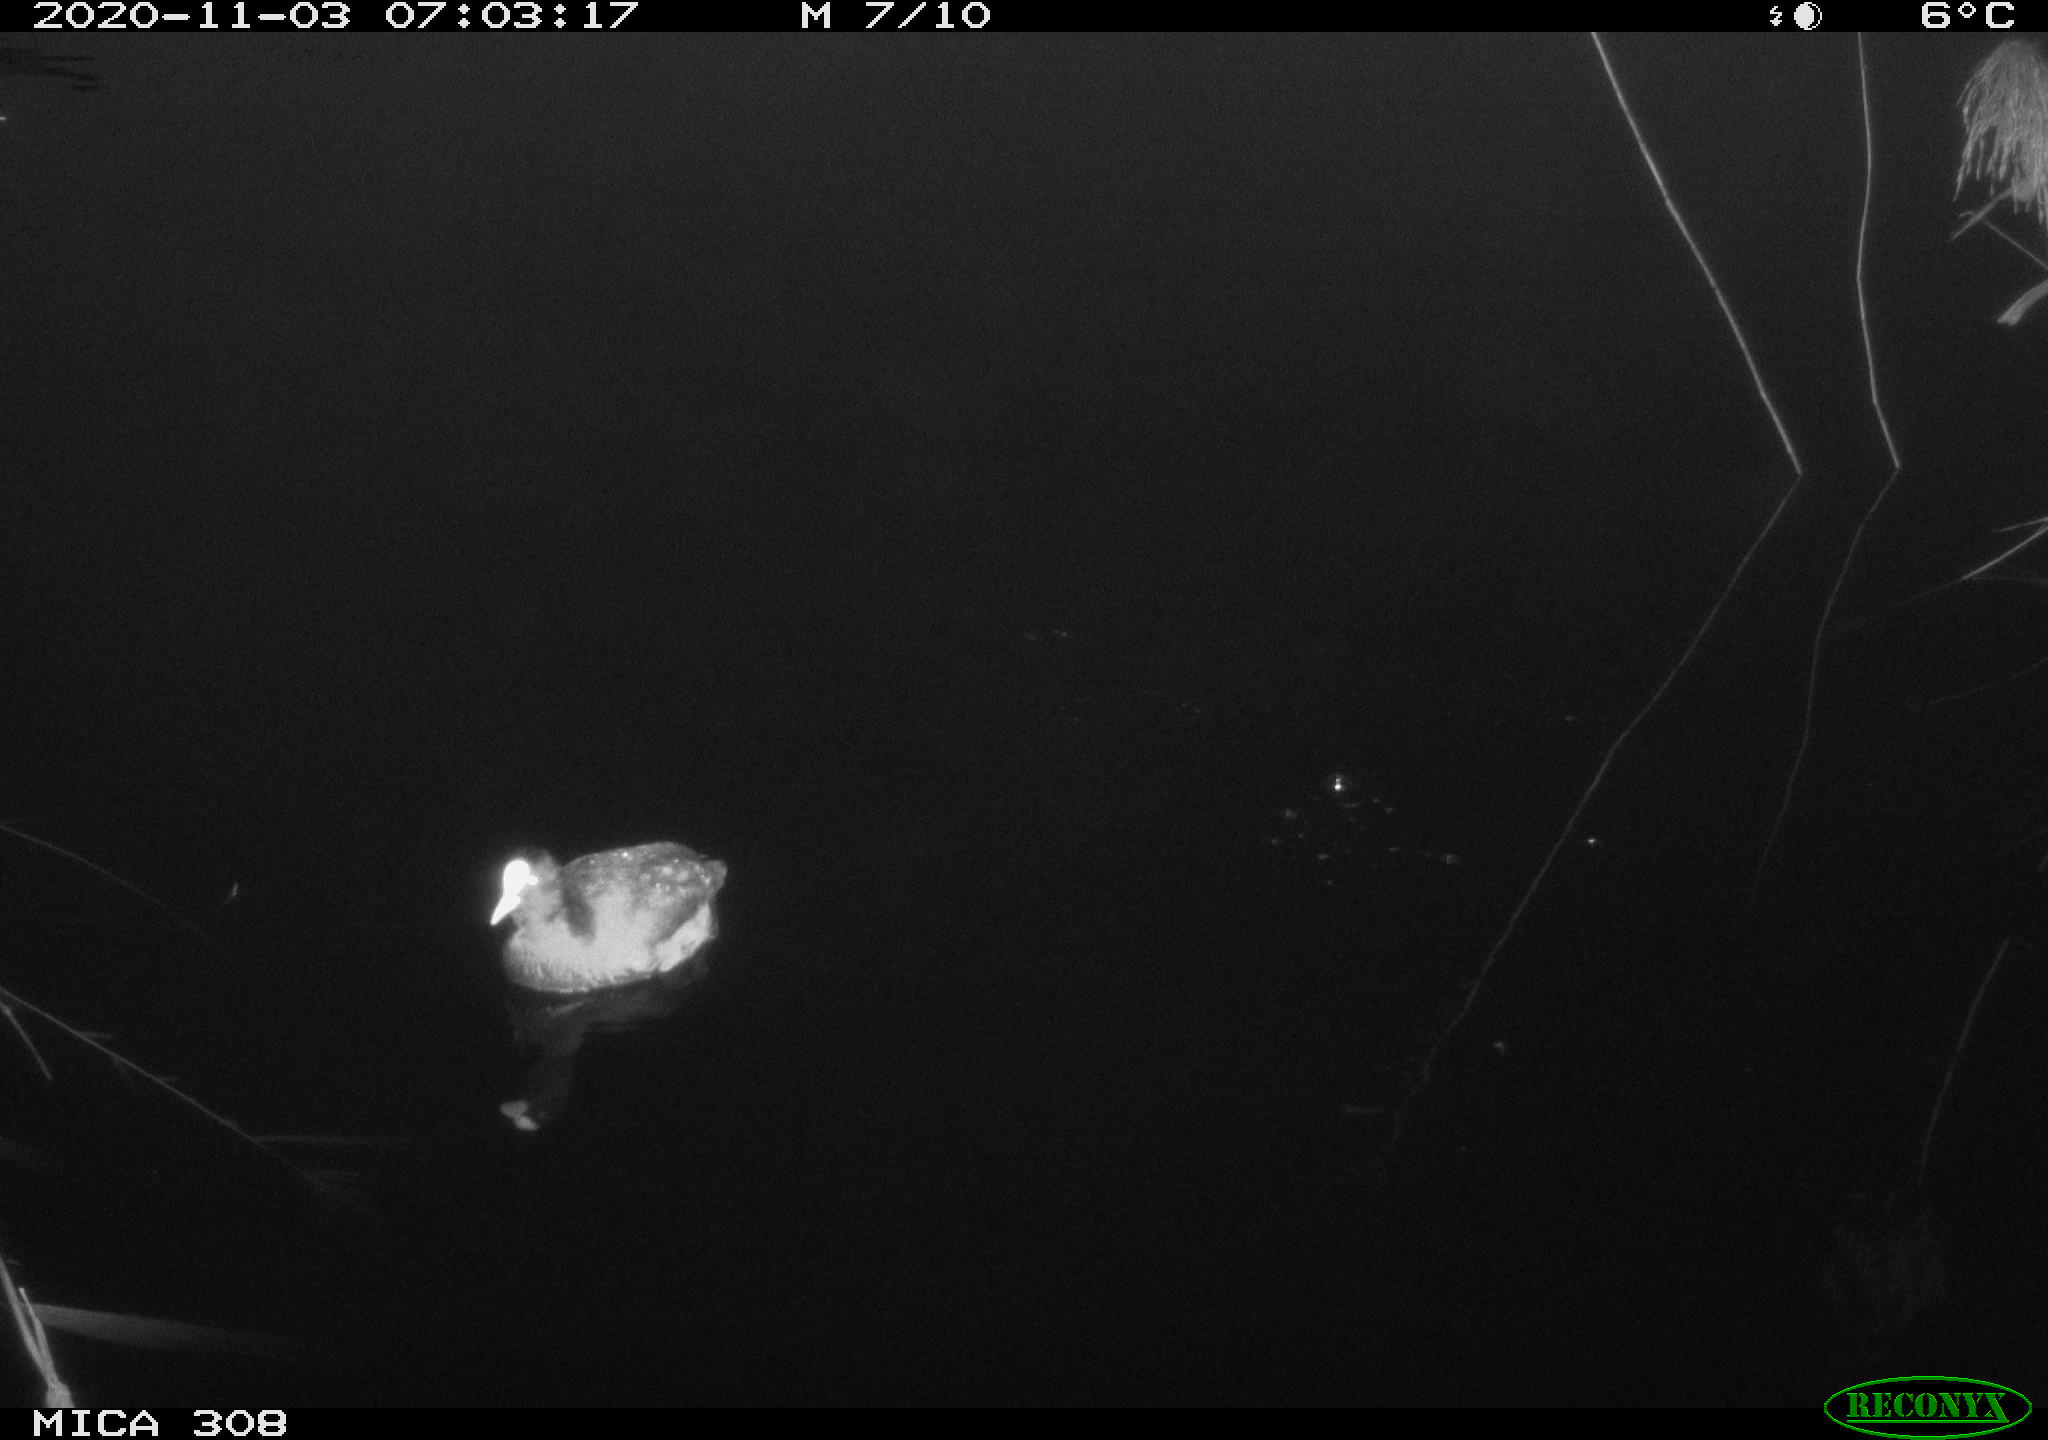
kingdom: Animalia
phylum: Chordata
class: Aves
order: Anseriformes
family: Anatidae
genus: Anas
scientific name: Anas platyrhynchos
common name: Mallard
